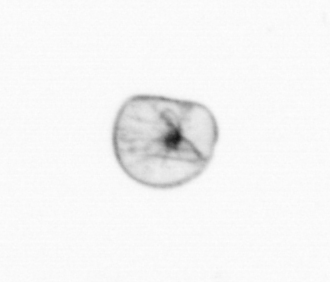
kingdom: Chromista
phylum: Myzozoa
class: Dinophyceae
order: Noctilucales
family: Noctilucaceae
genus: Noctiluca
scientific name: Noctiluca scintillans
